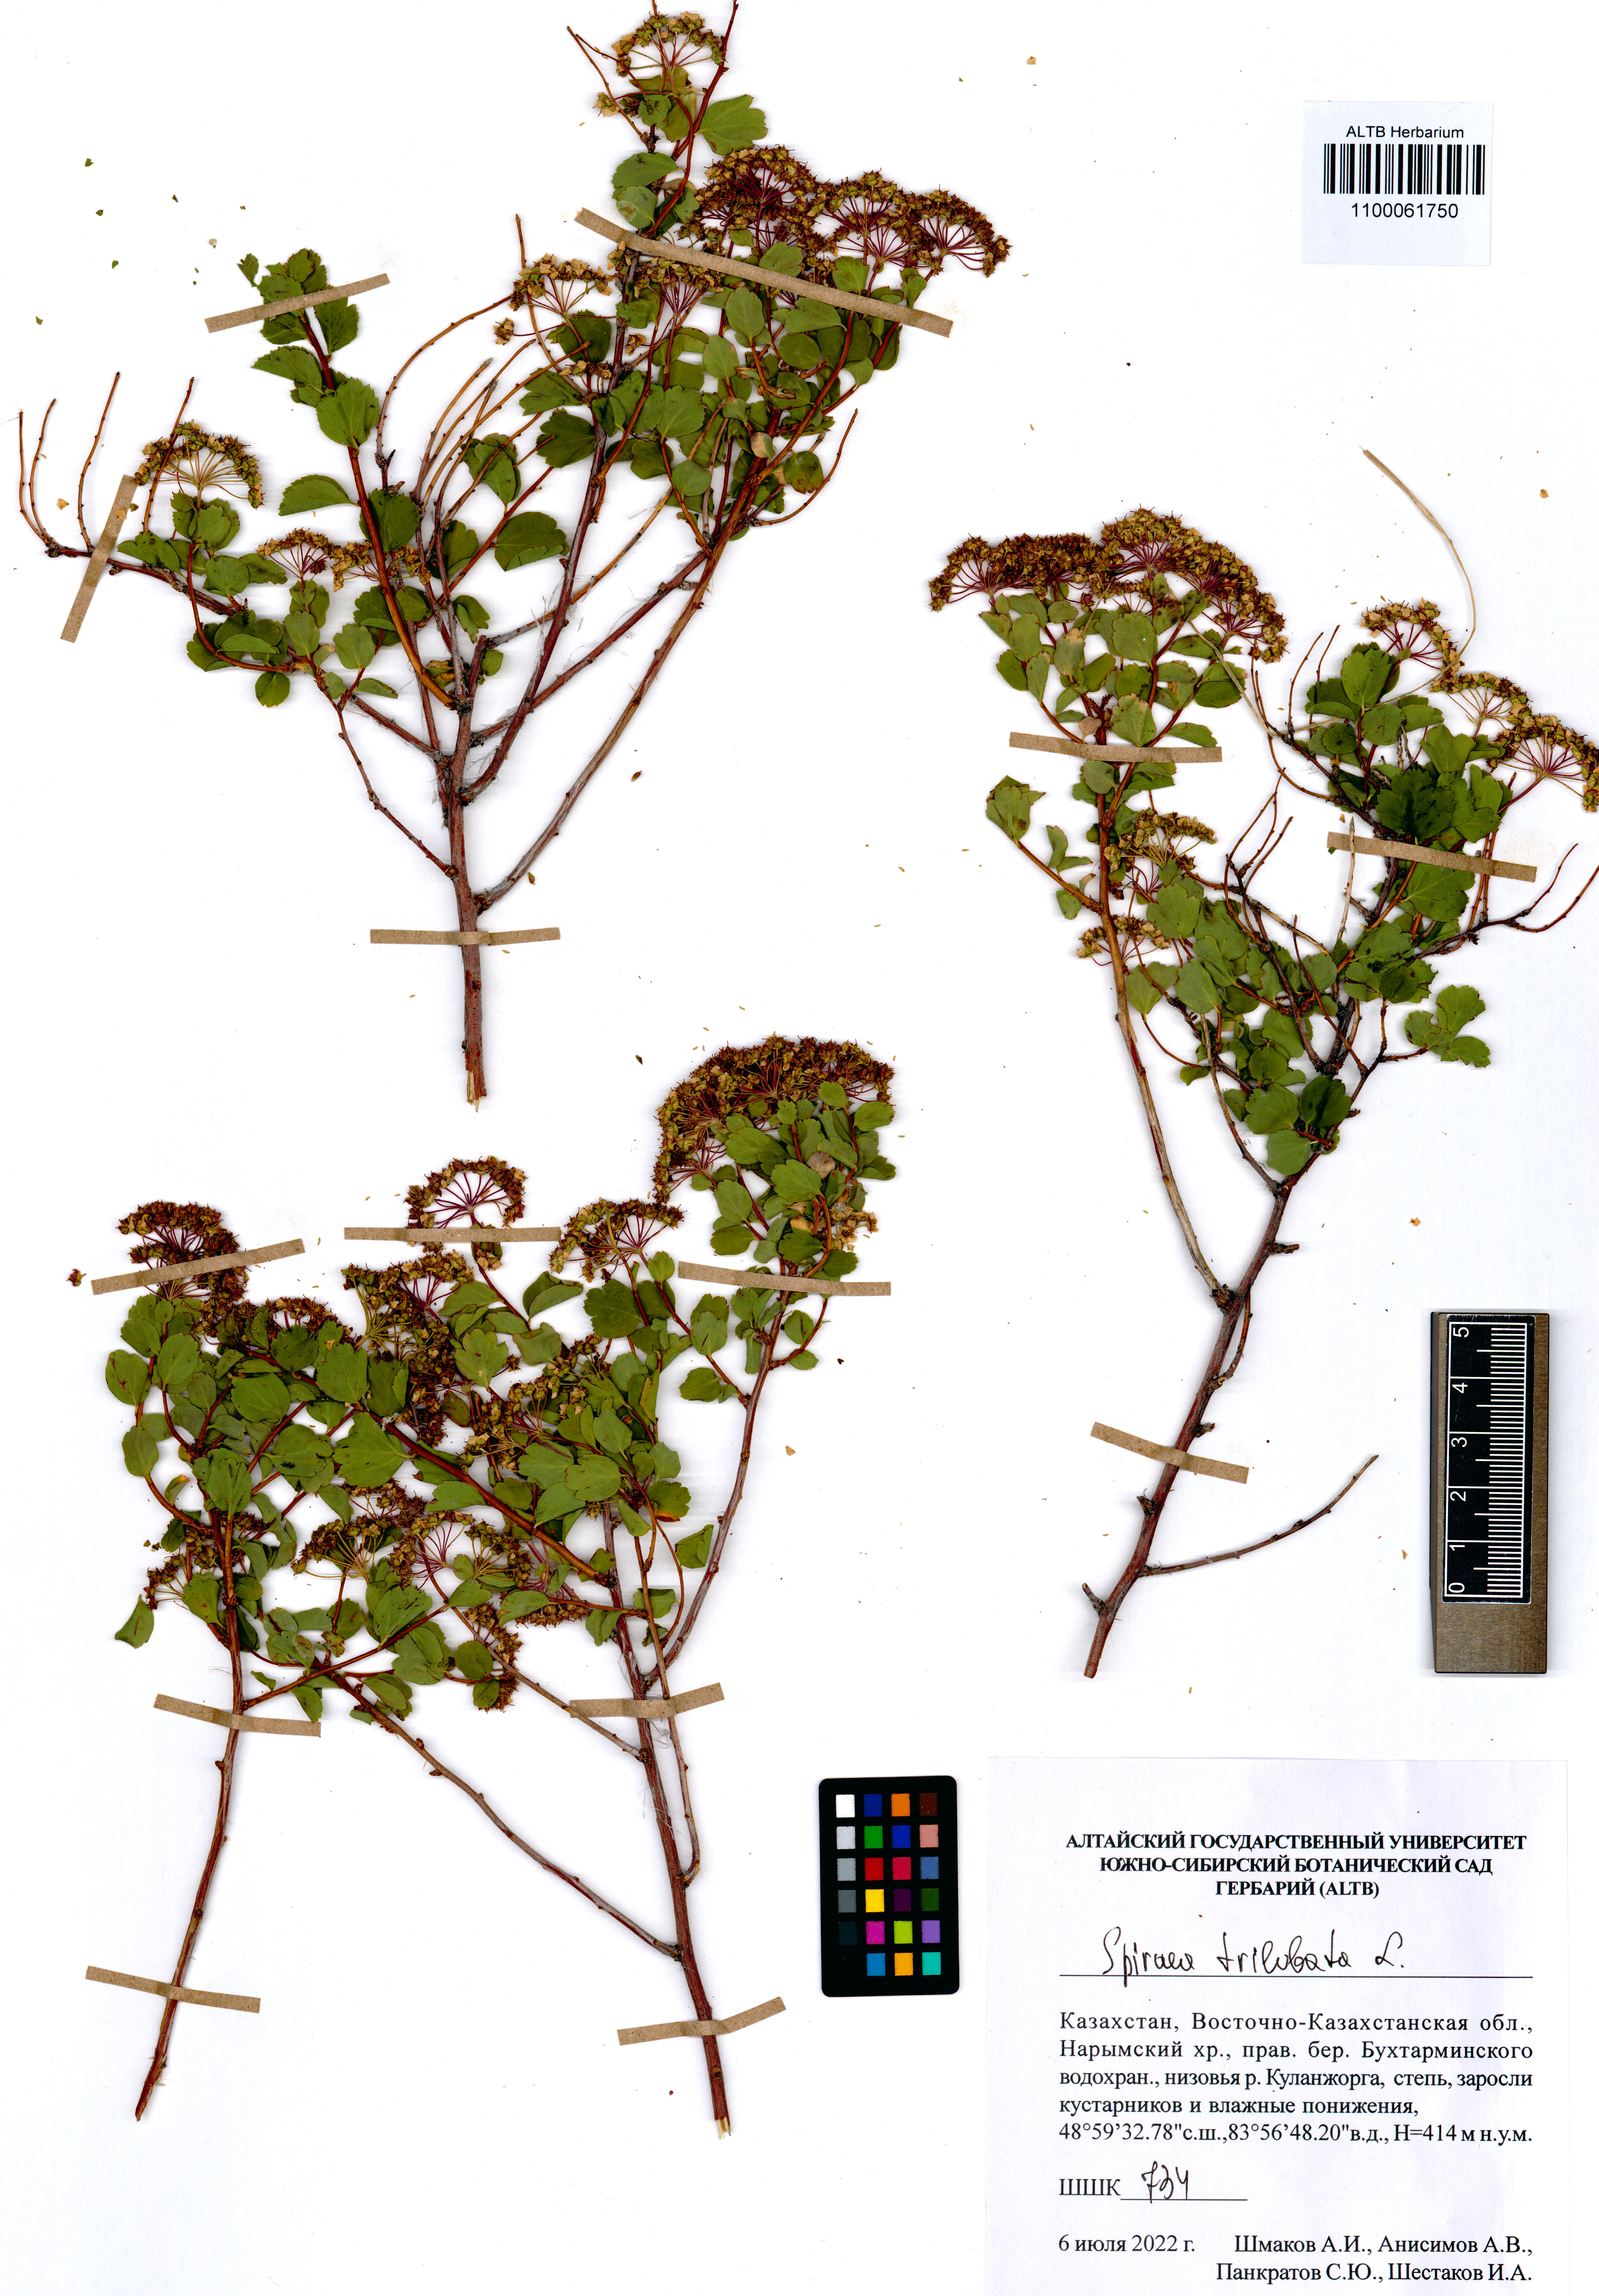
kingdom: Plantae
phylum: Tracheophyta
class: Magnoliopsida
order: Rosales
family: Rosaceae
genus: Spiraea
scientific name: Spiraea trilobata
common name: Asian meadowsweet
